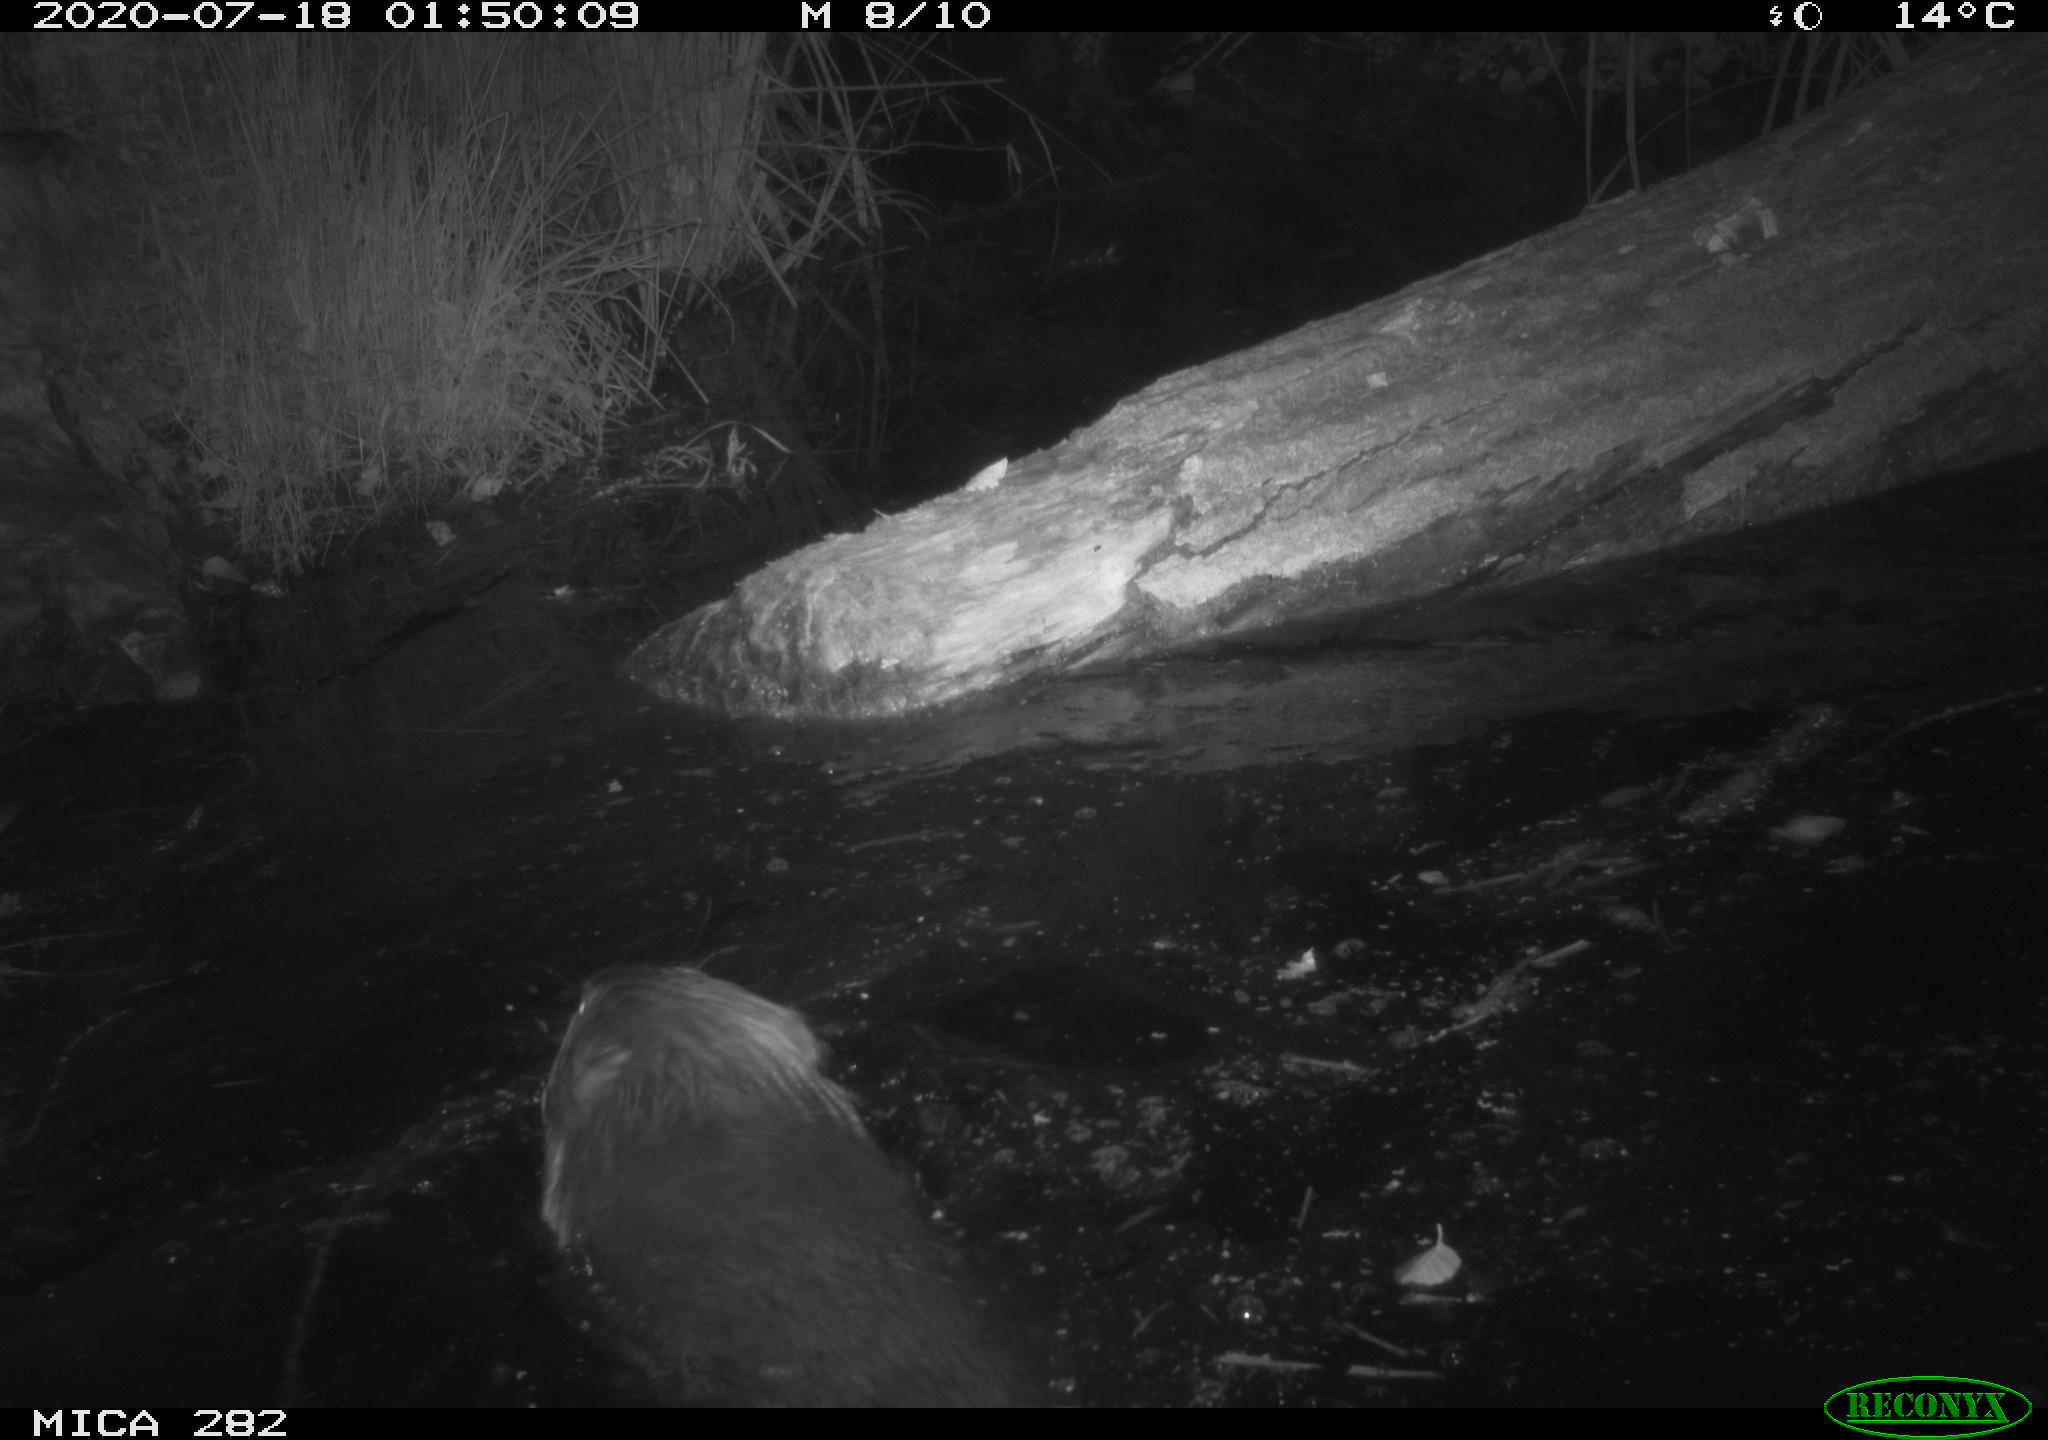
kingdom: Animalia
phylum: Chordata
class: Mammalia
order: Rodentia
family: Castoridae
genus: Castor
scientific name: Castor fiber
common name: Eurasian beaver
